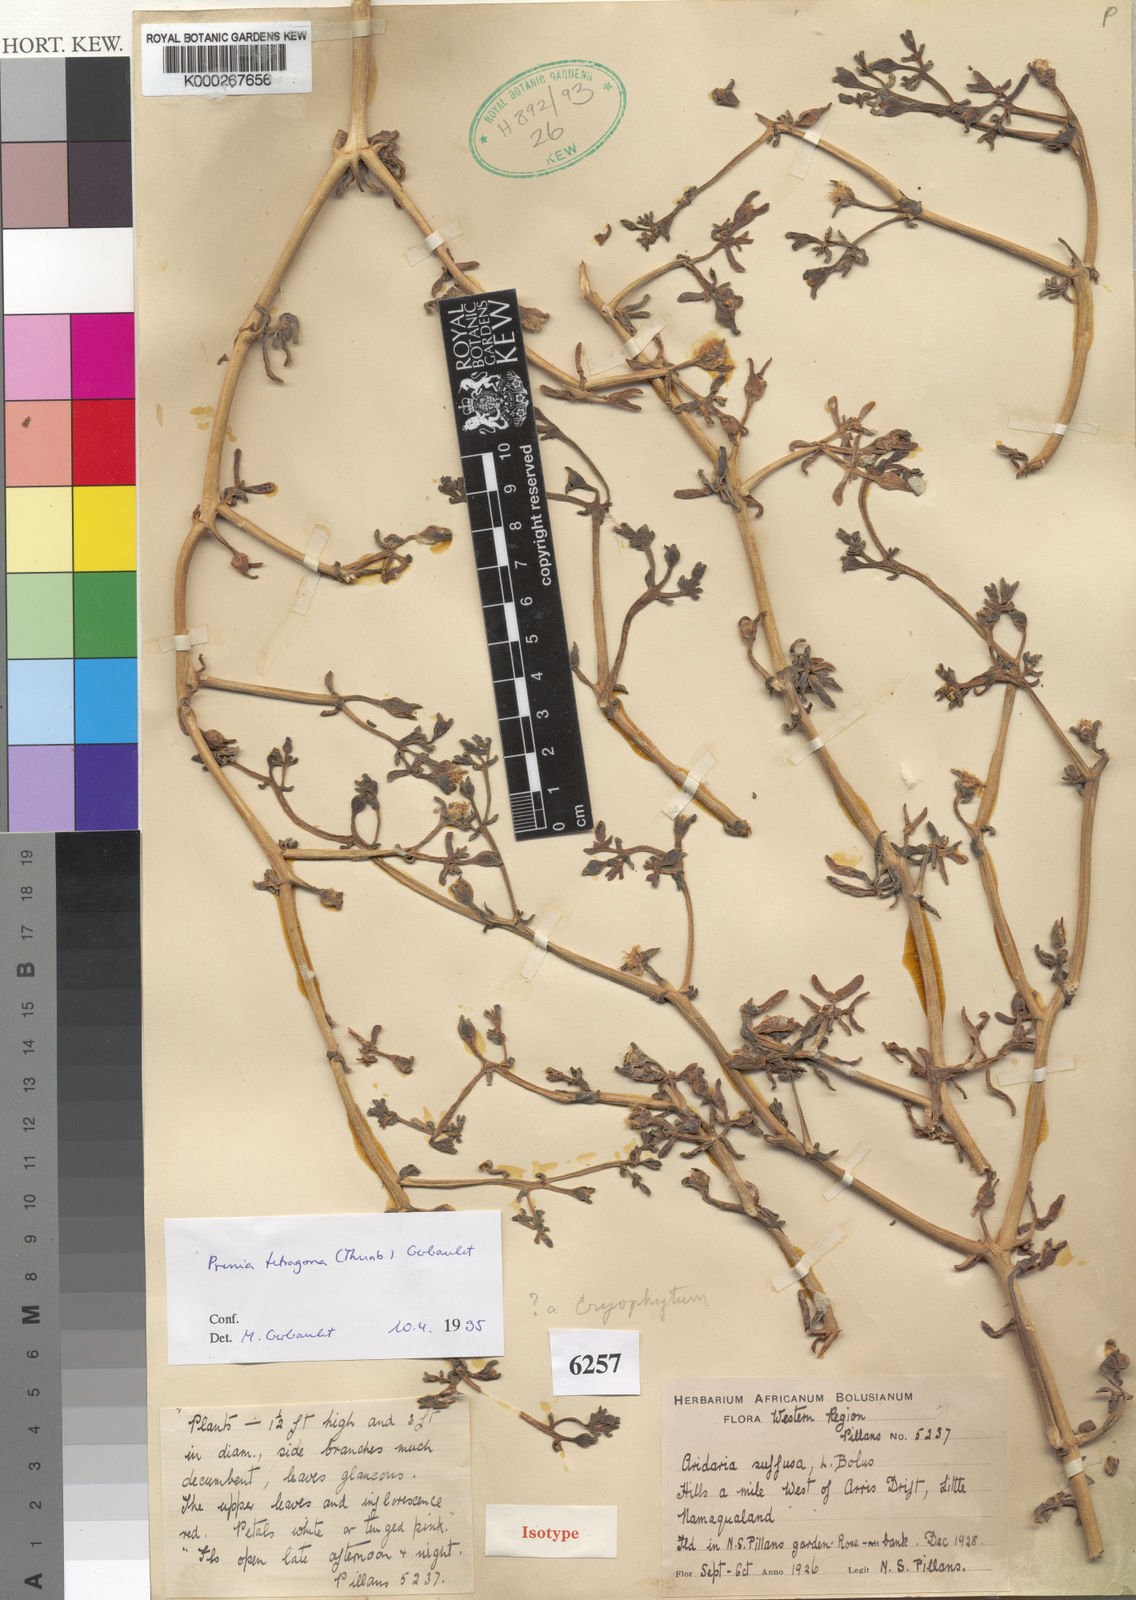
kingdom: Plantae
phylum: Tracheophyta
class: Magnoliopsida
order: Caryophyllales
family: Aizoaceae
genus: Mesembryanthemum
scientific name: Mesembryanthemum tetragonum
